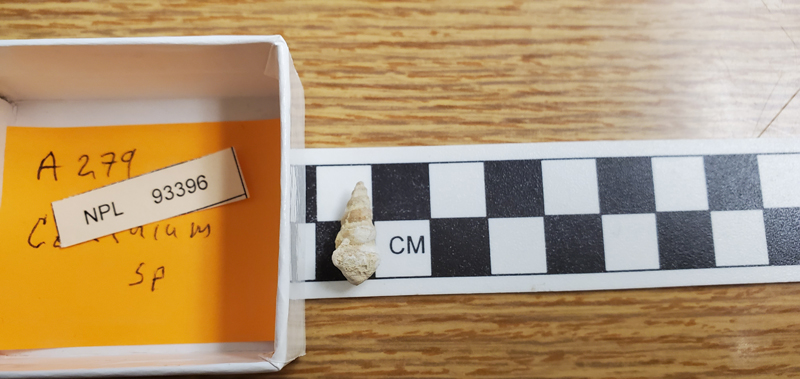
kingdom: Animalia
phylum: Mollusca
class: Gastropoda
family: Cerithiidae
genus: Cerithium
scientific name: Cerithium
